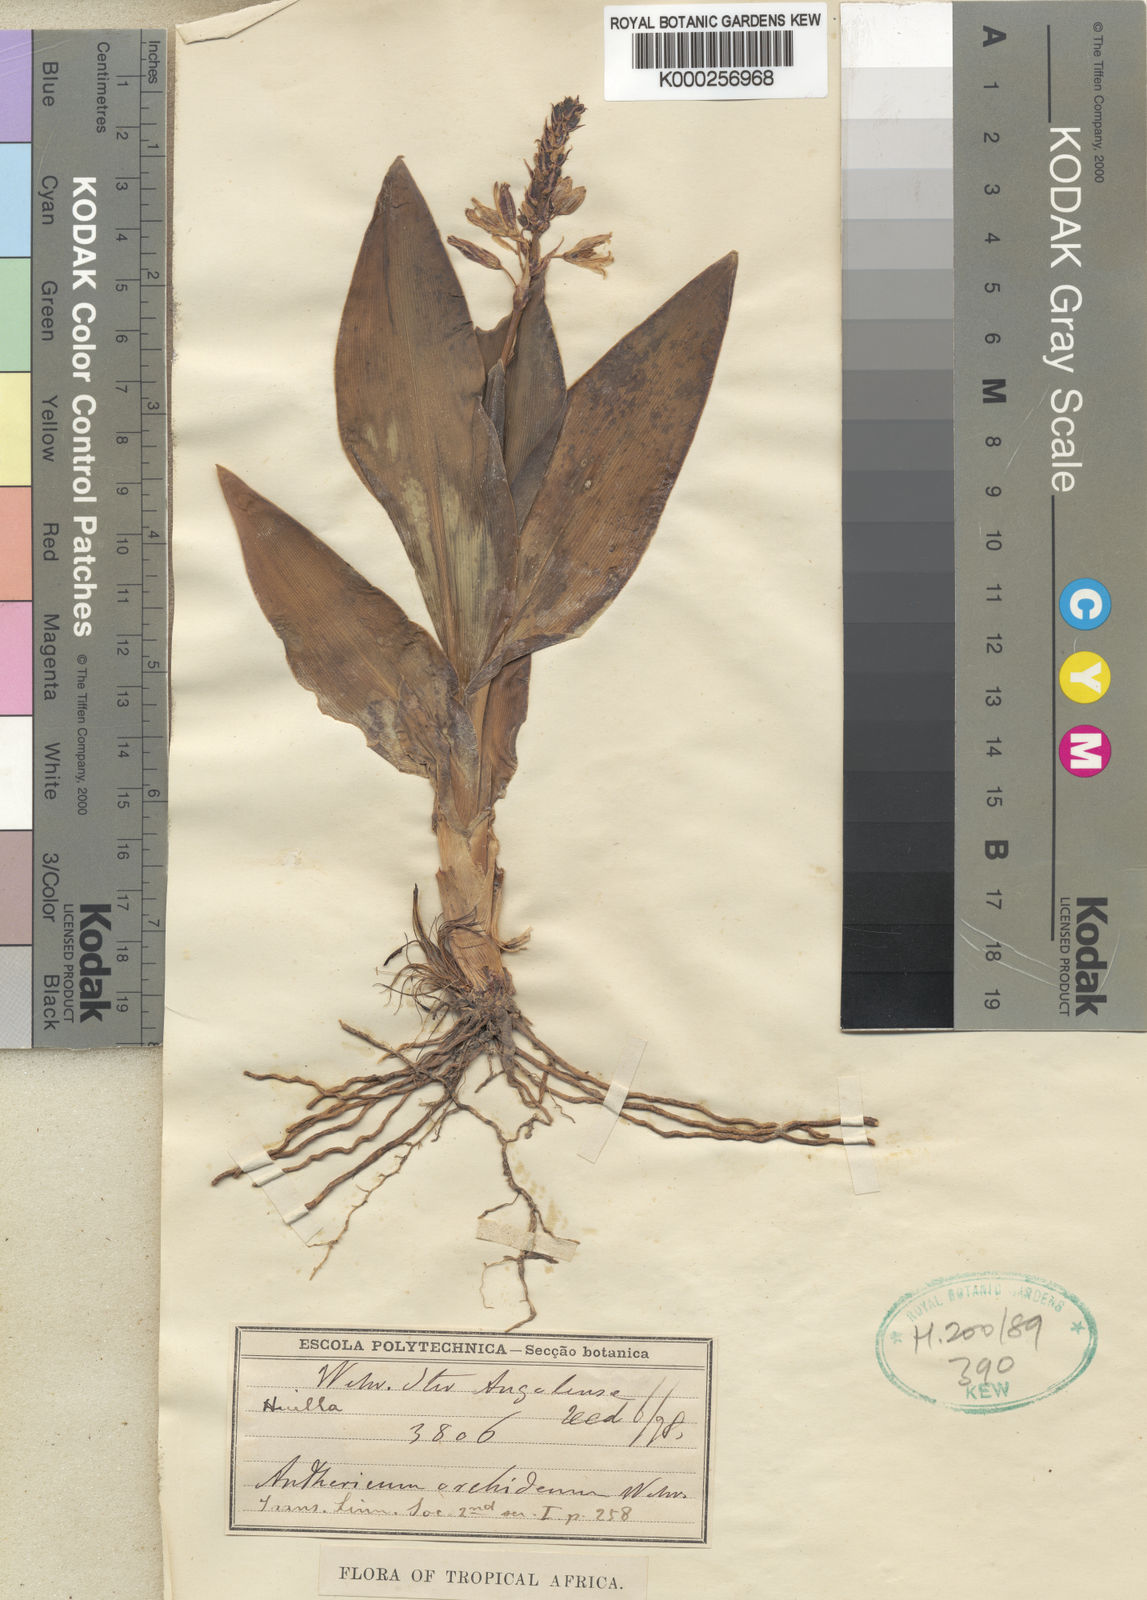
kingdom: Plantae
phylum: Tracheophyta
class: Liliopsida
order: Asparagales
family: Asparagaceae
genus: Chlorophytum
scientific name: Chlorophytum orchideum
